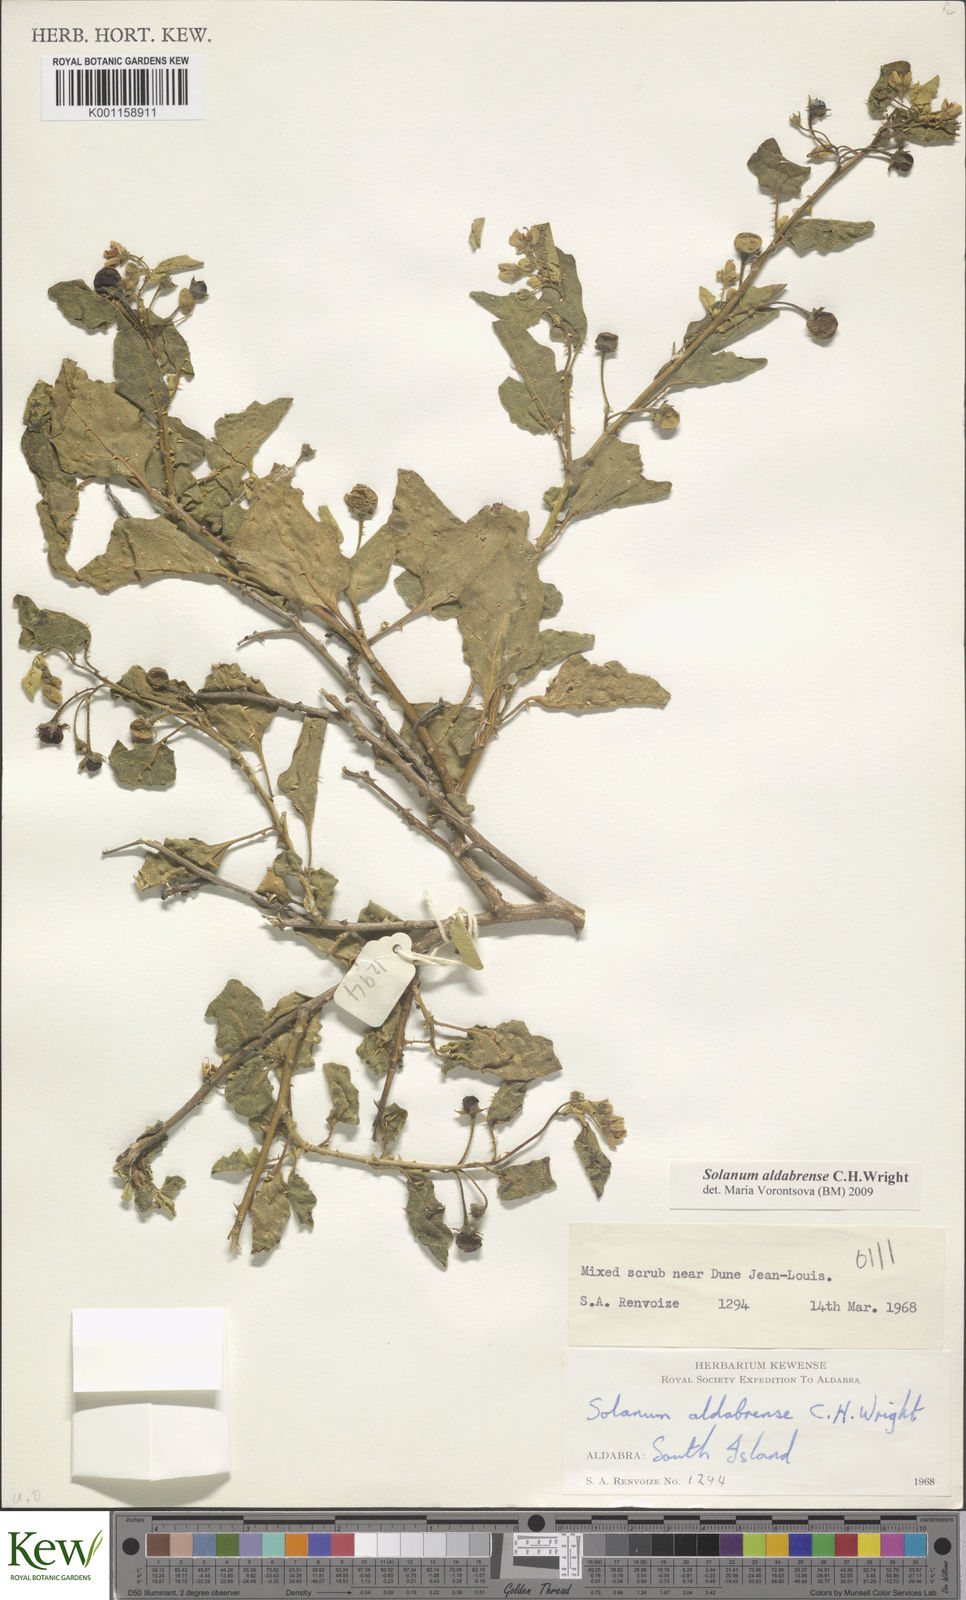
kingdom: Plantae
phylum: Tracheophyta
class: Magnoliopsida
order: Solanales
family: Solanaceae
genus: Solanum
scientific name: Solanum aldabrense
